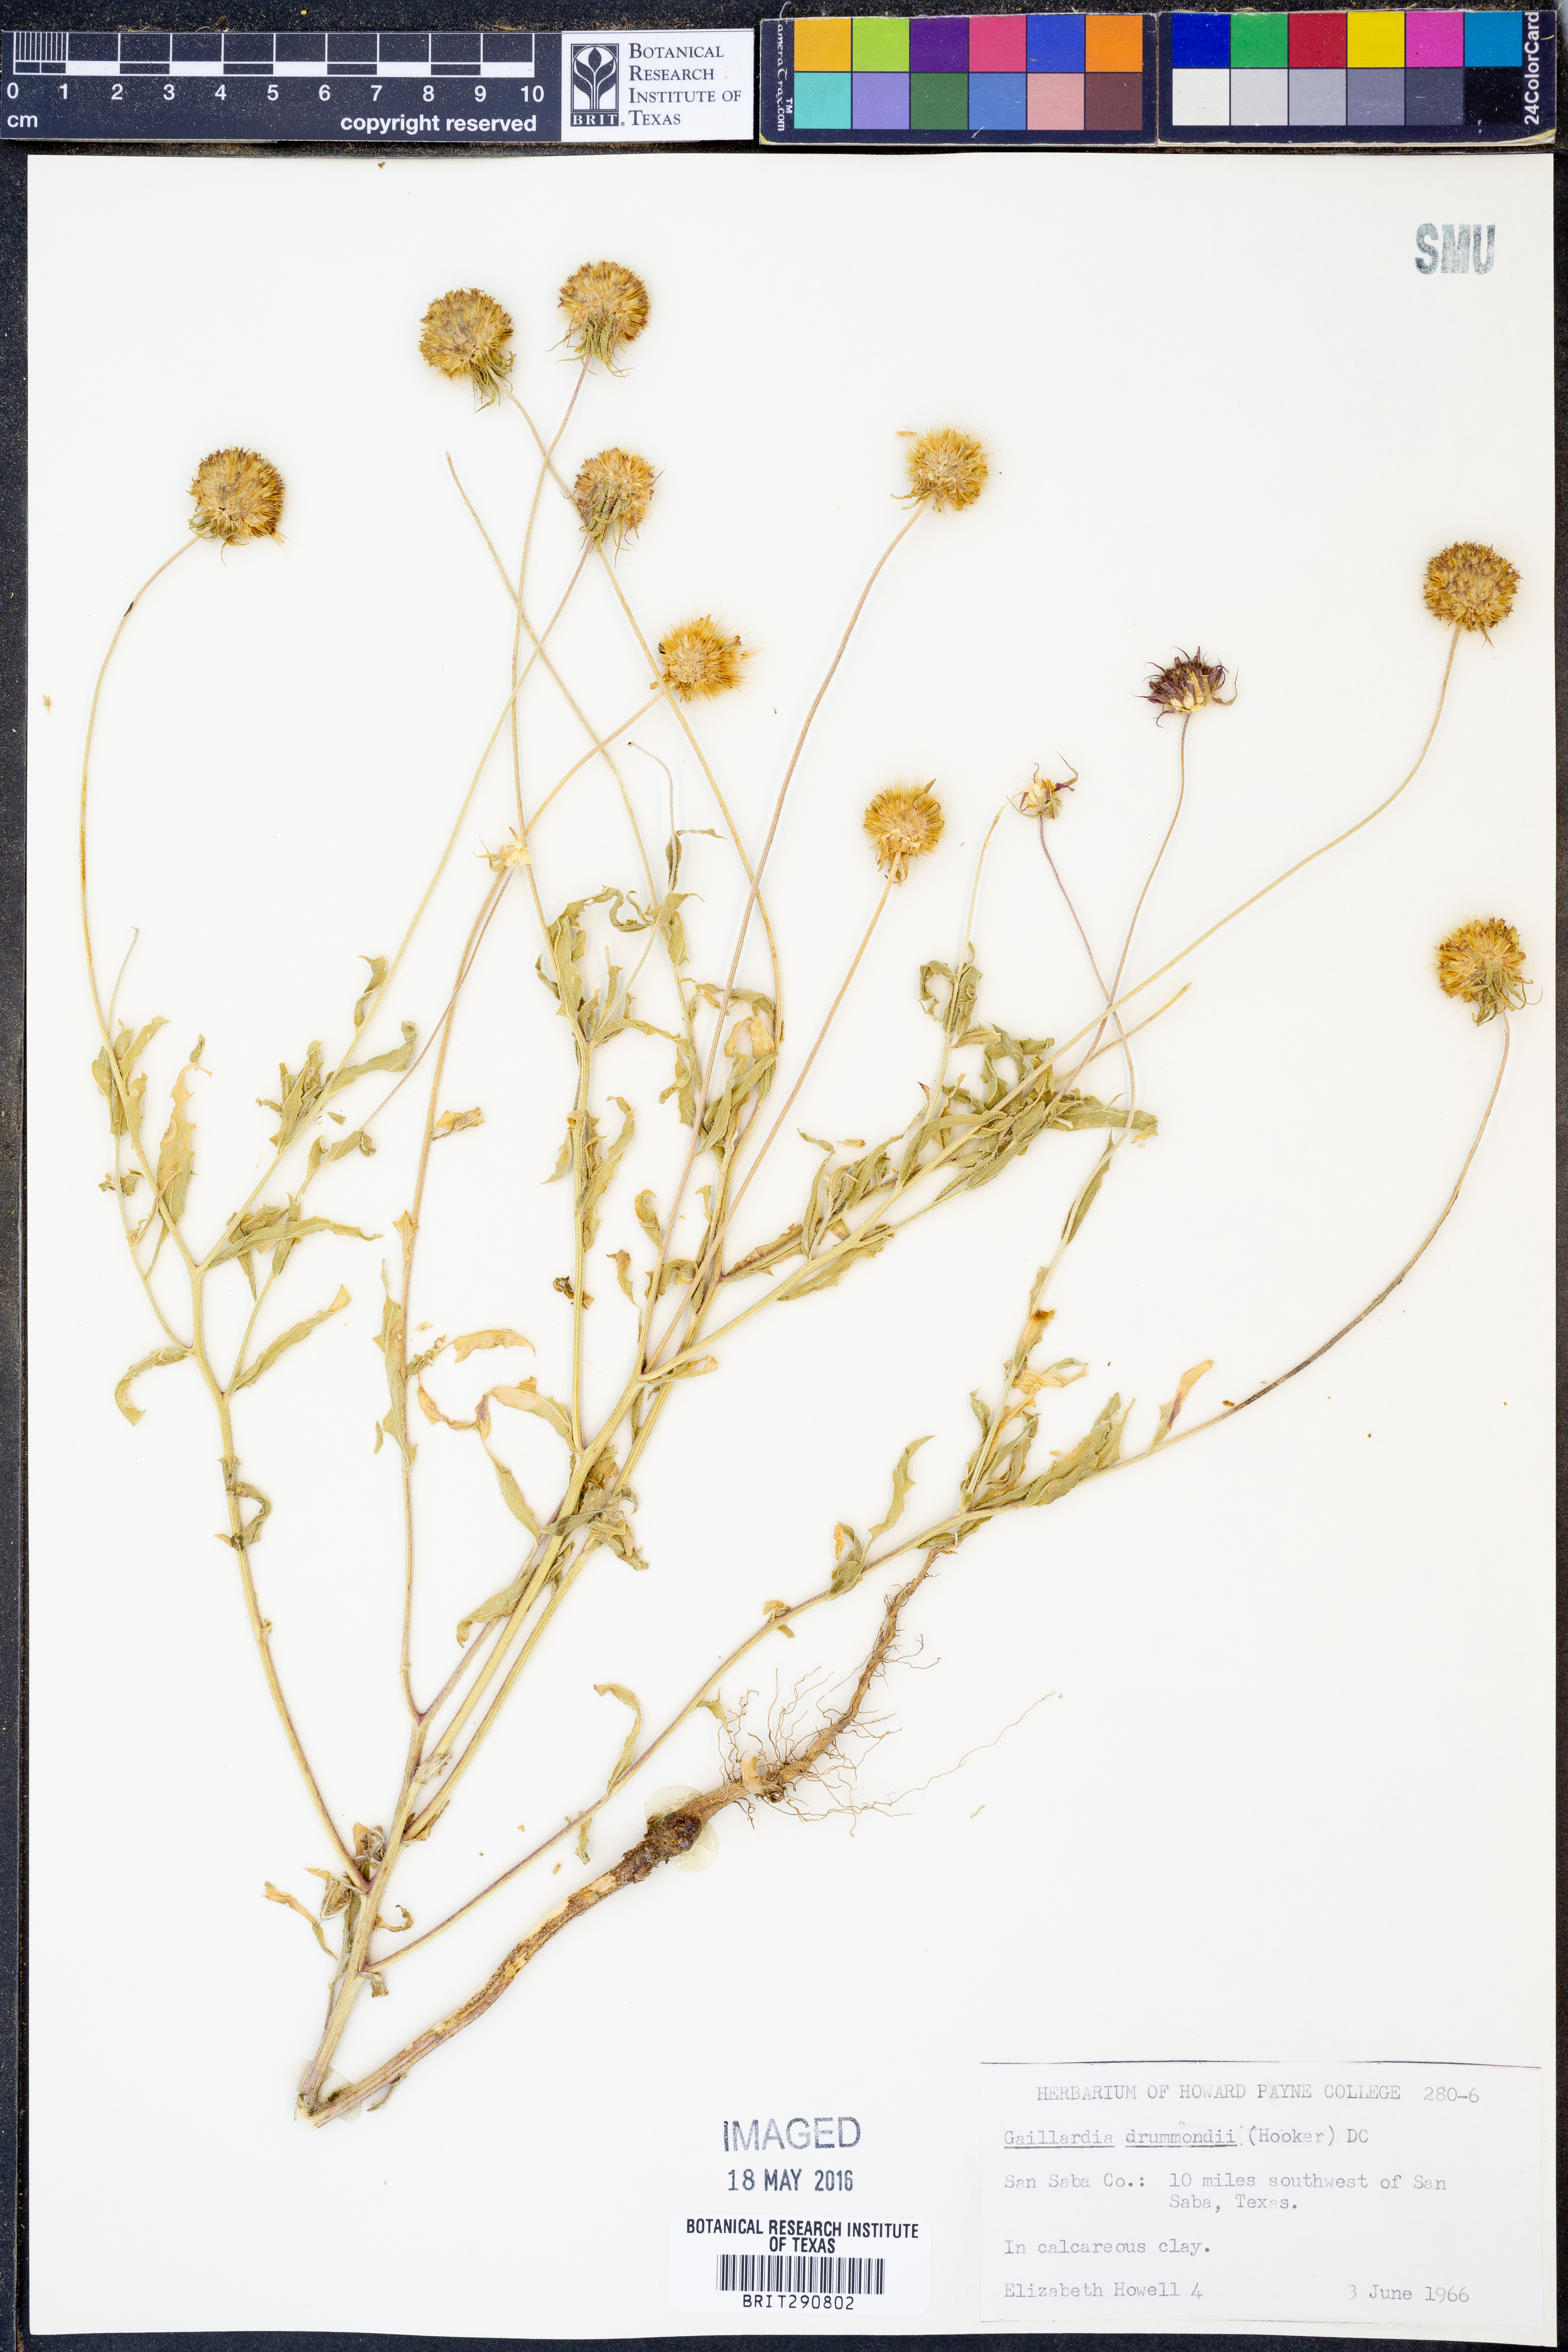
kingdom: Plantae
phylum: Tracheophyta
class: Magnoliopsida
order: Asterales
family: Asteraceae
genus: Gaillardia
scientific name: Gaillardia pulchella
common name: Firewheel
